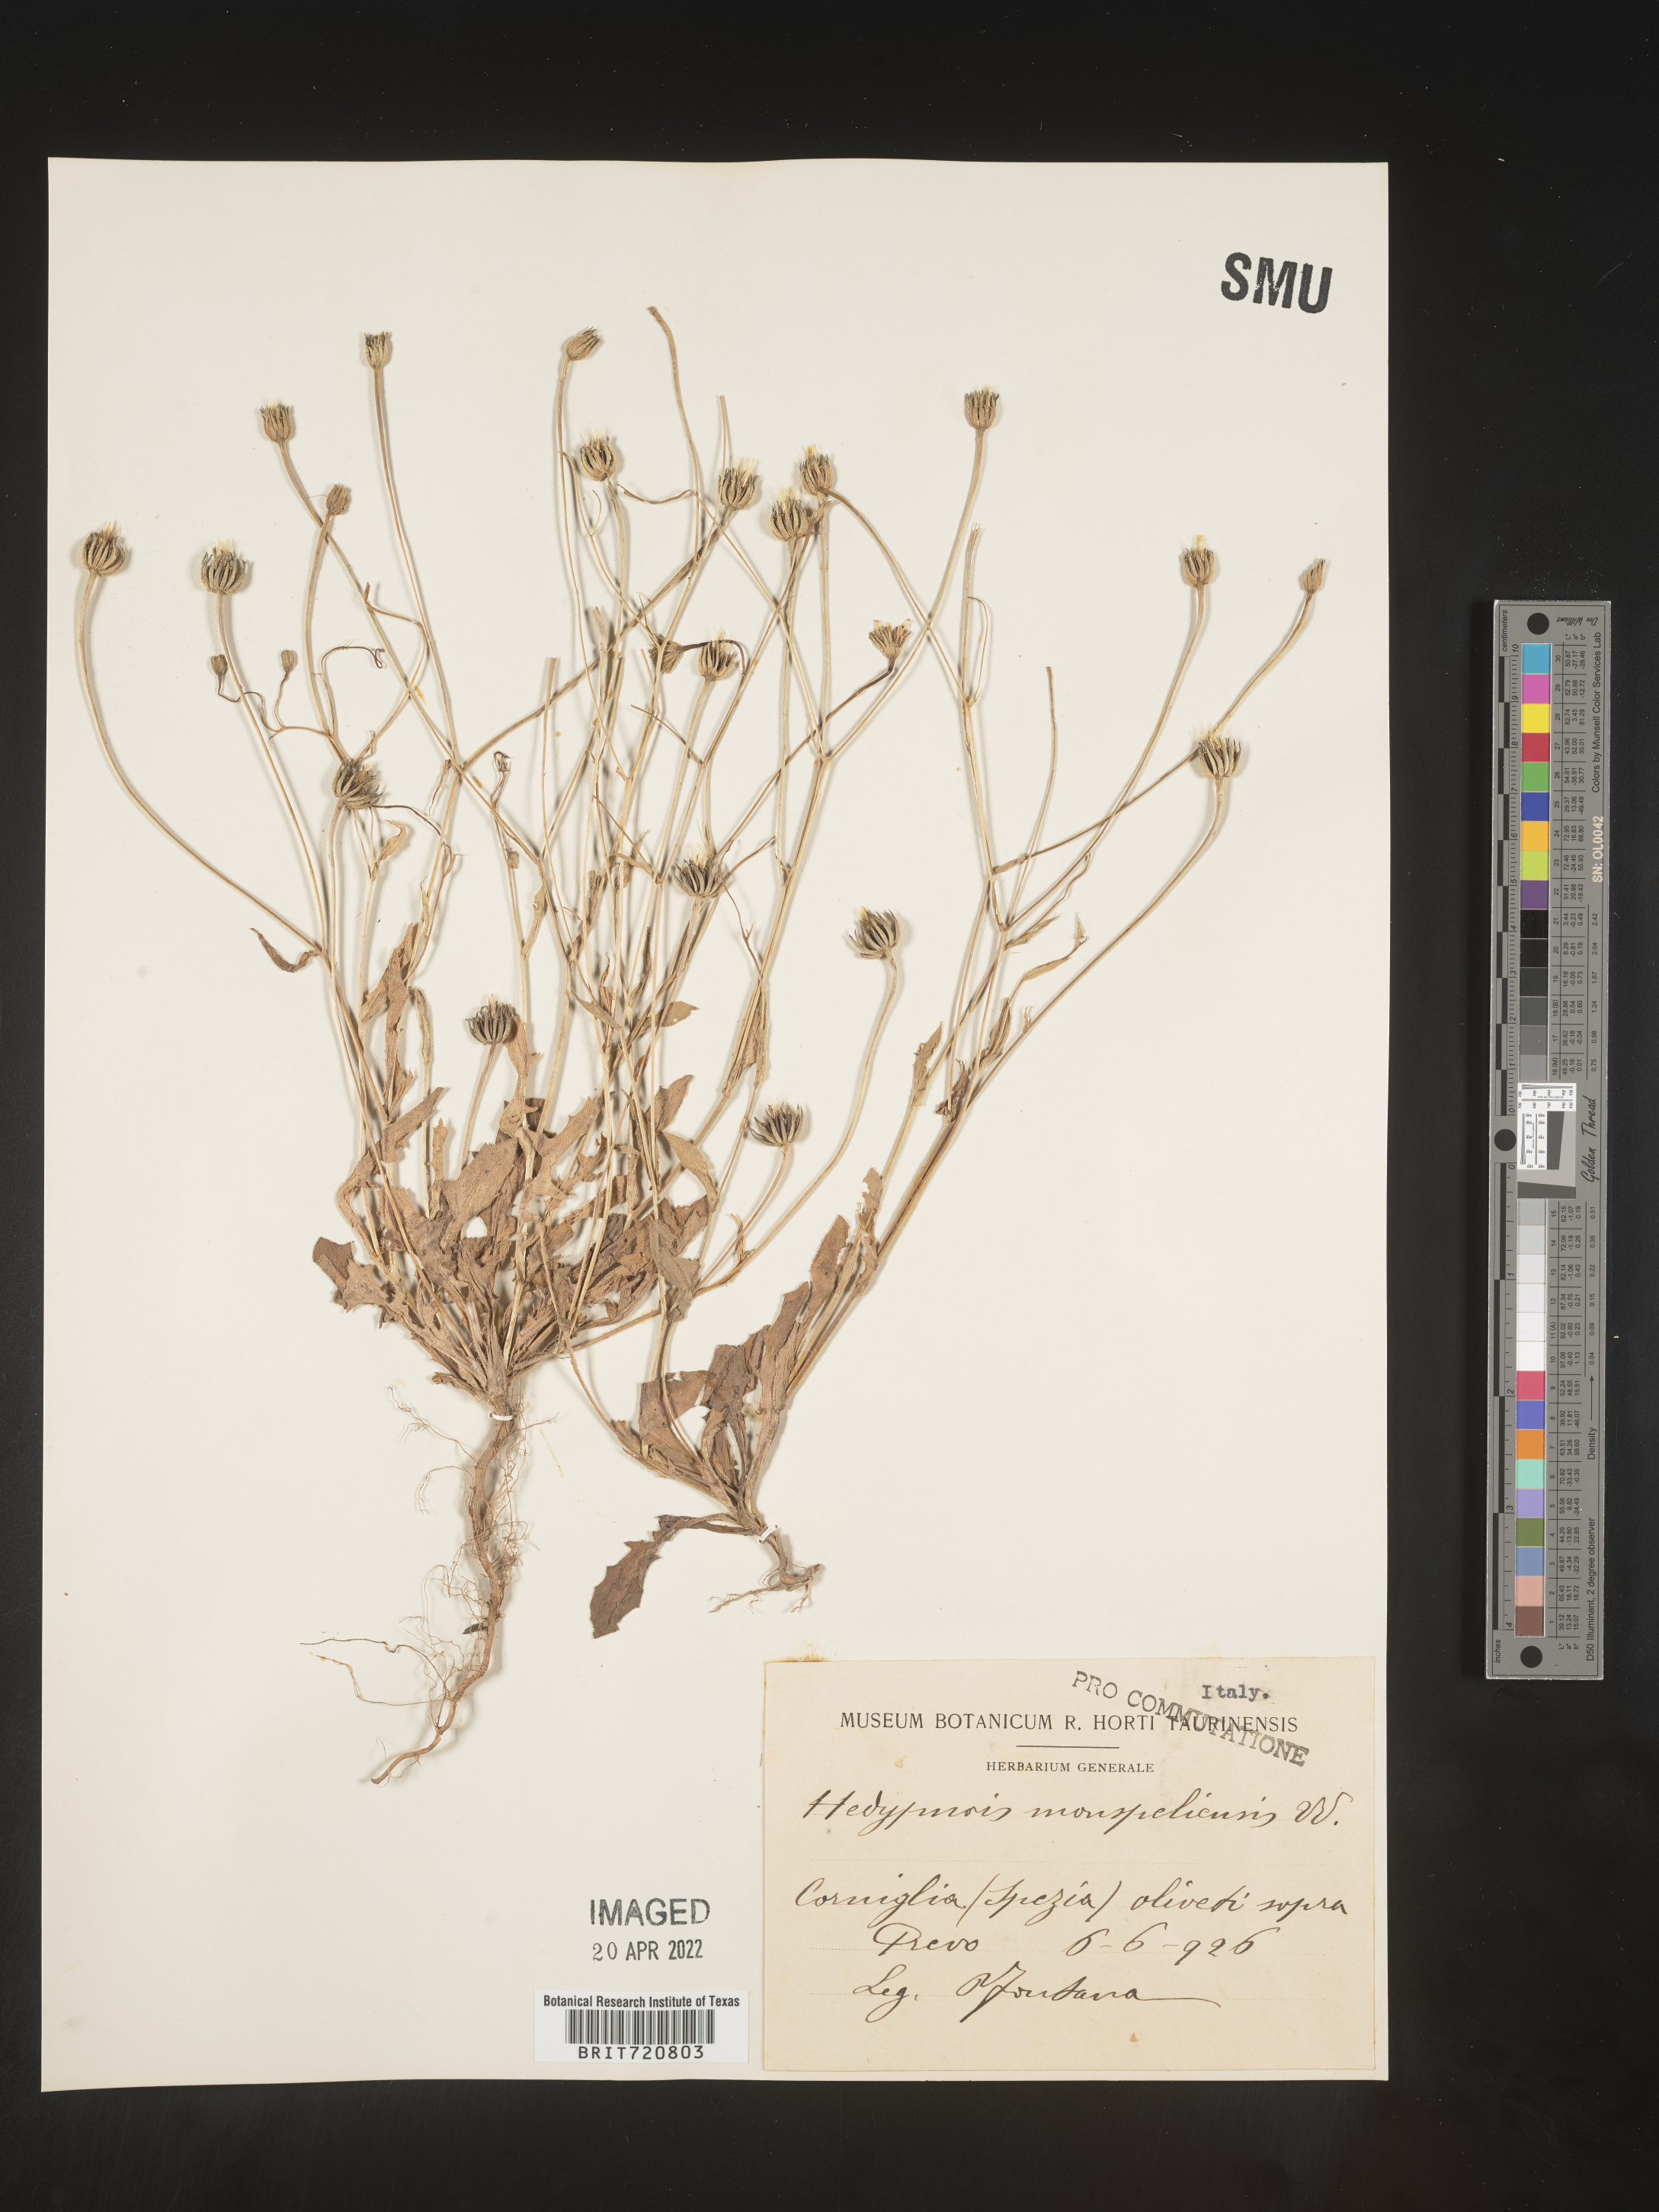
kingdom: Plantae
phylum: Tracheophyta
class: Magnoliopsida
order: Asterales
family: Asteraceae
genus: Hedypnois
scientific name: Hedypnois
